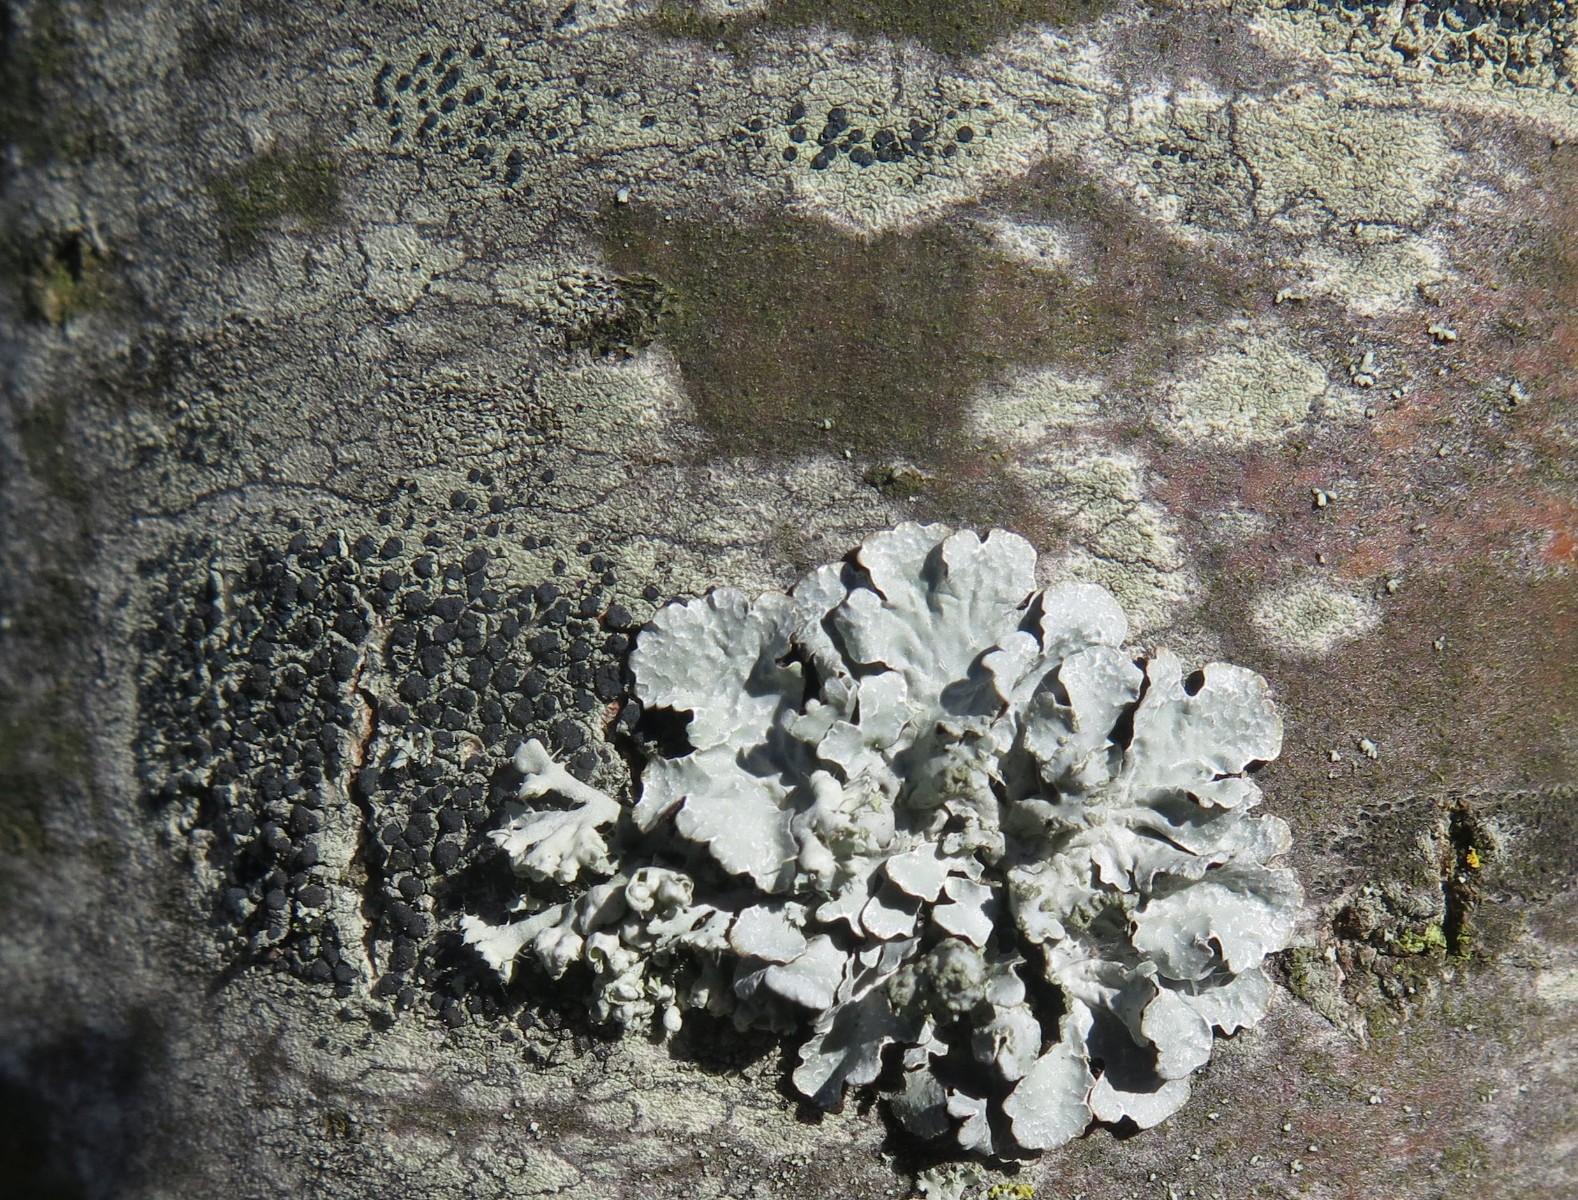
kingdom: Fungi
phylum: Ascomycota
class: Lecanoromycetes
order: Lecanorales
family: Lecanoraceae
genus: Lecidella
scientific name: Lecidella elaeochroma
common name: grågrøn skivelav
